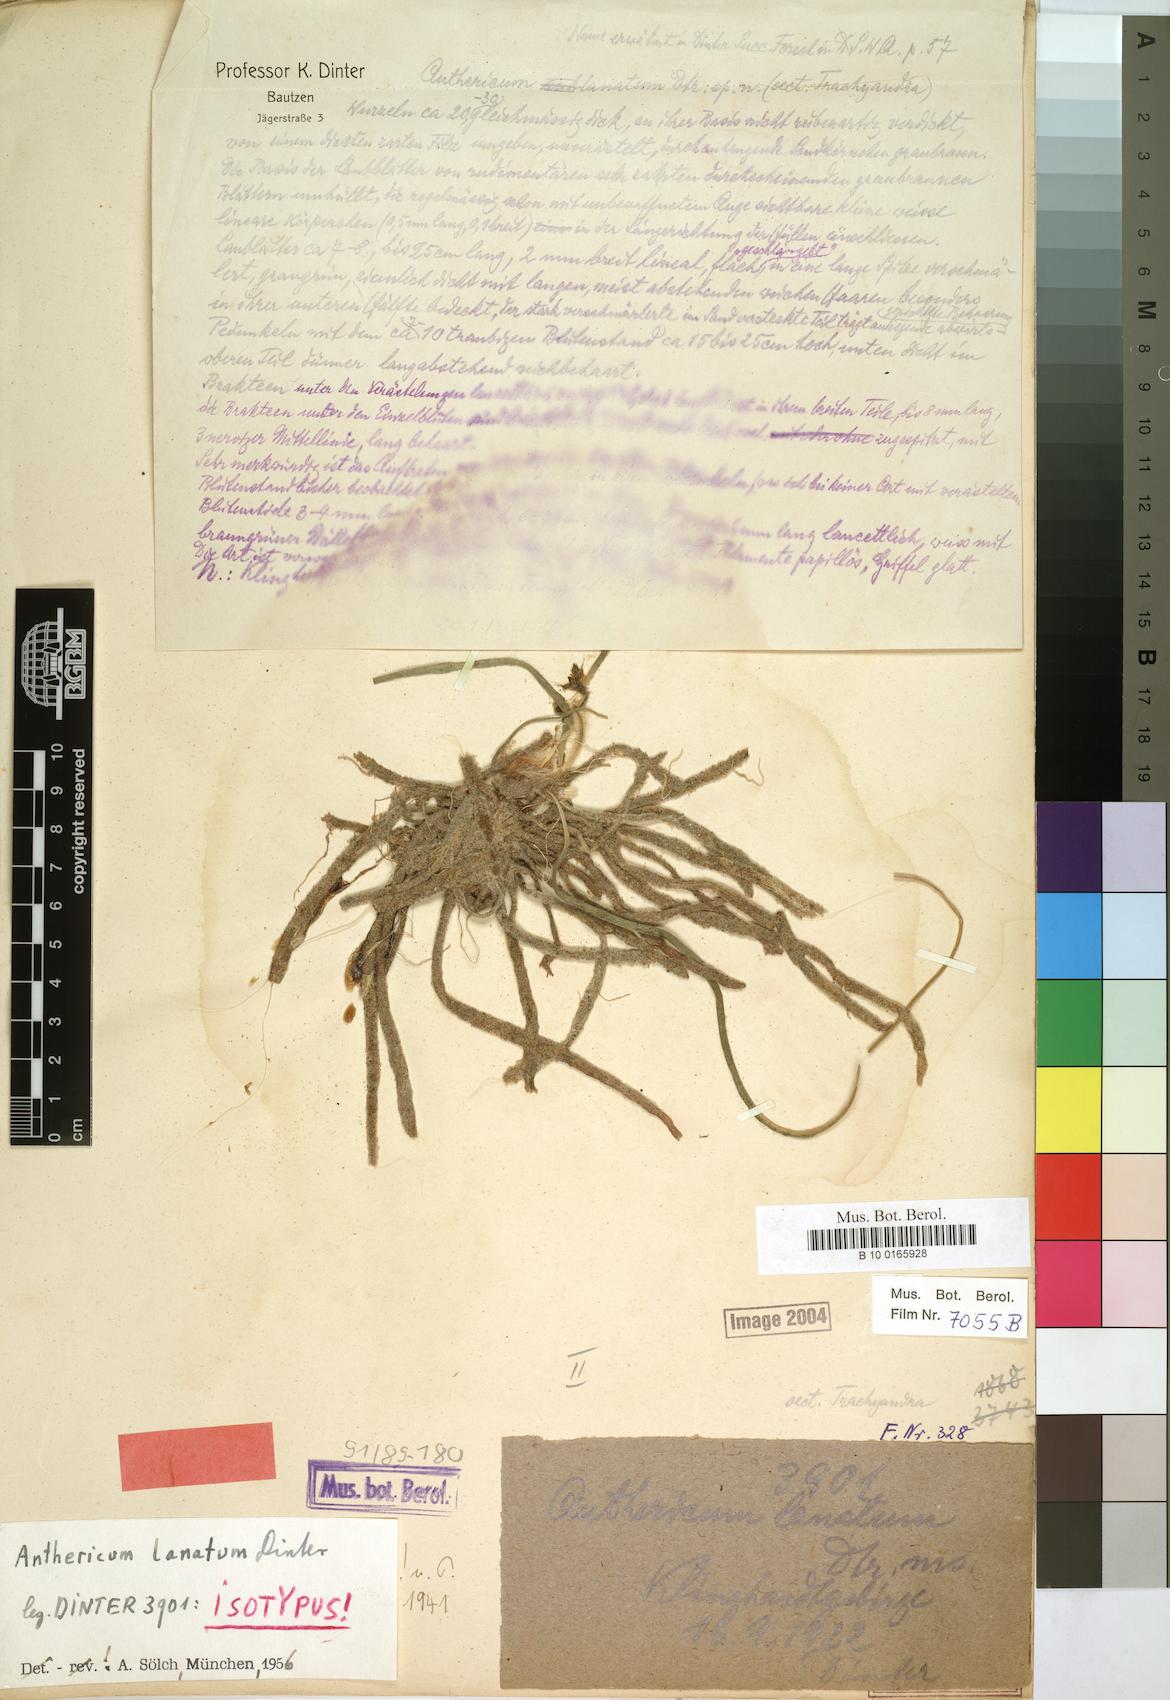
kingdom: Plantae
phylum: Tracheophyta
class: Liliopsida
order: Asparagales
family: Asphodelaceae
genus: Trachyandra
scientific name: Trachyandra lanata
